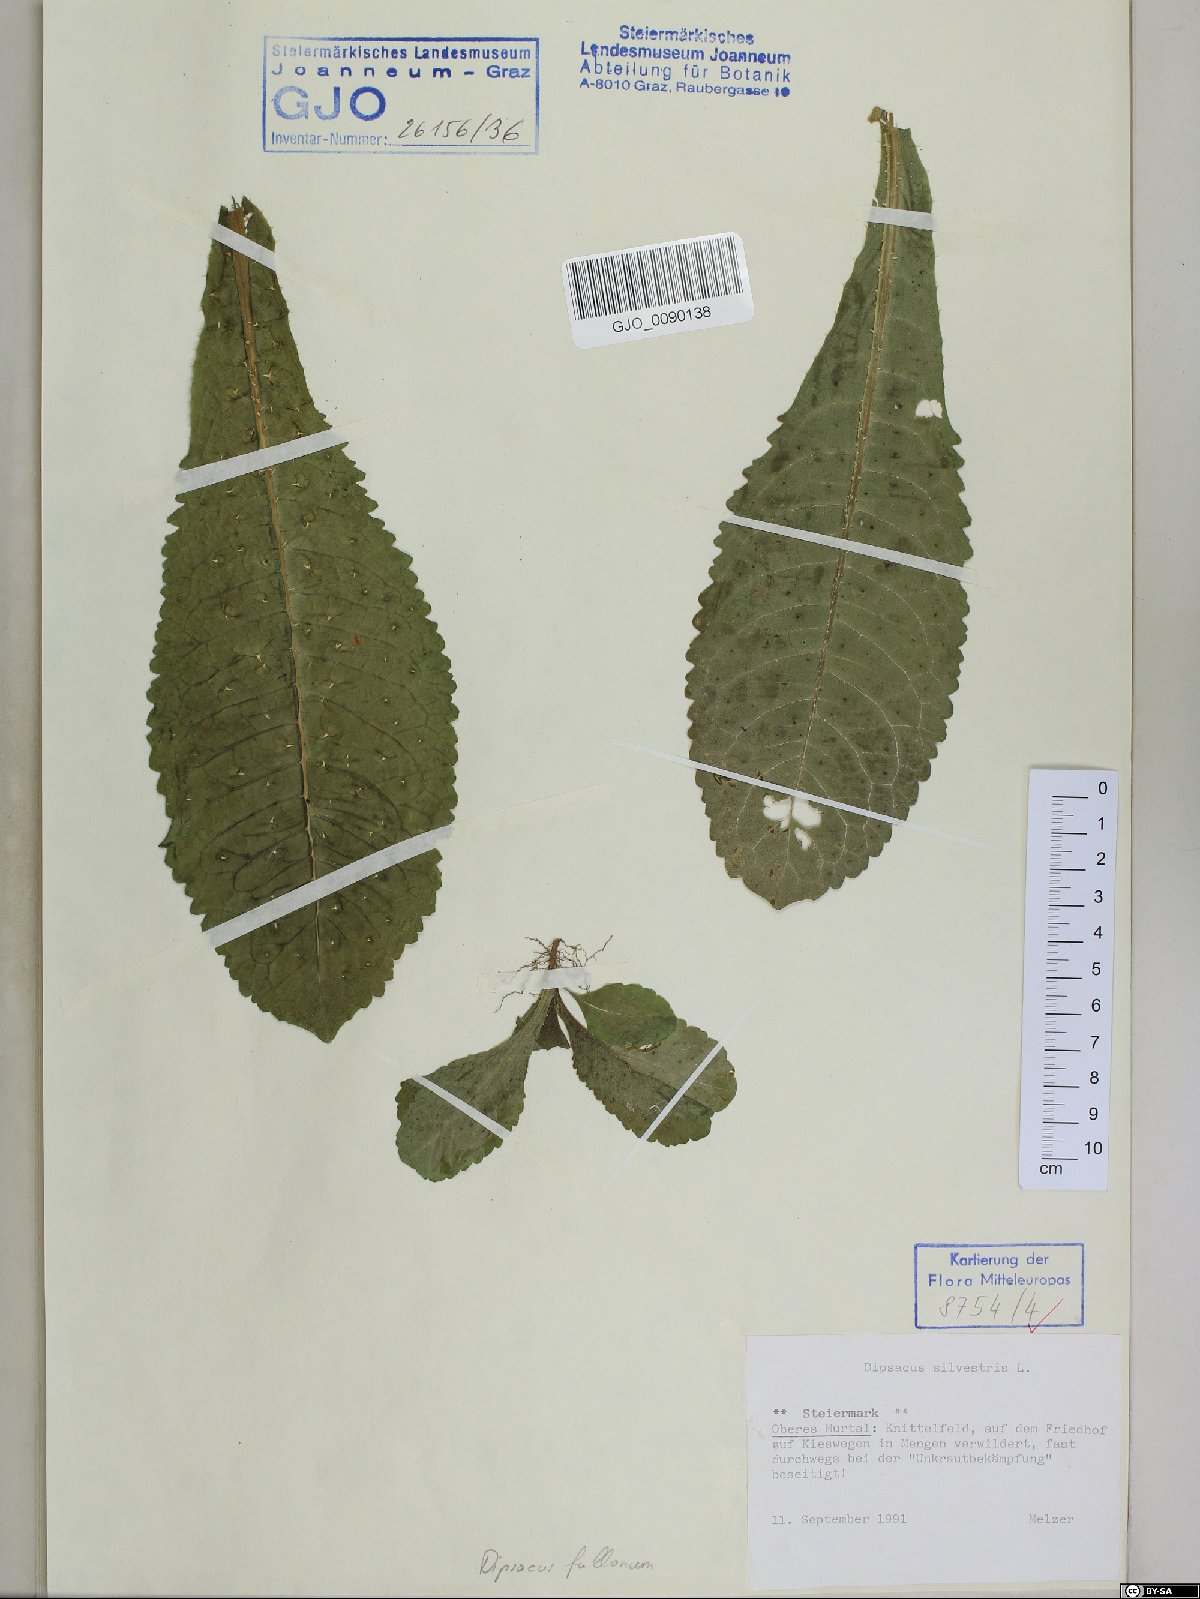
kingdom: Plantae
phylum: Tracheophyta
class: Magnoliopsida
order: Dipsacales
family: Caprifoliaceae
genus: Dipsacus
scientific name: Dipsacus fullonum
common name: Teasel
